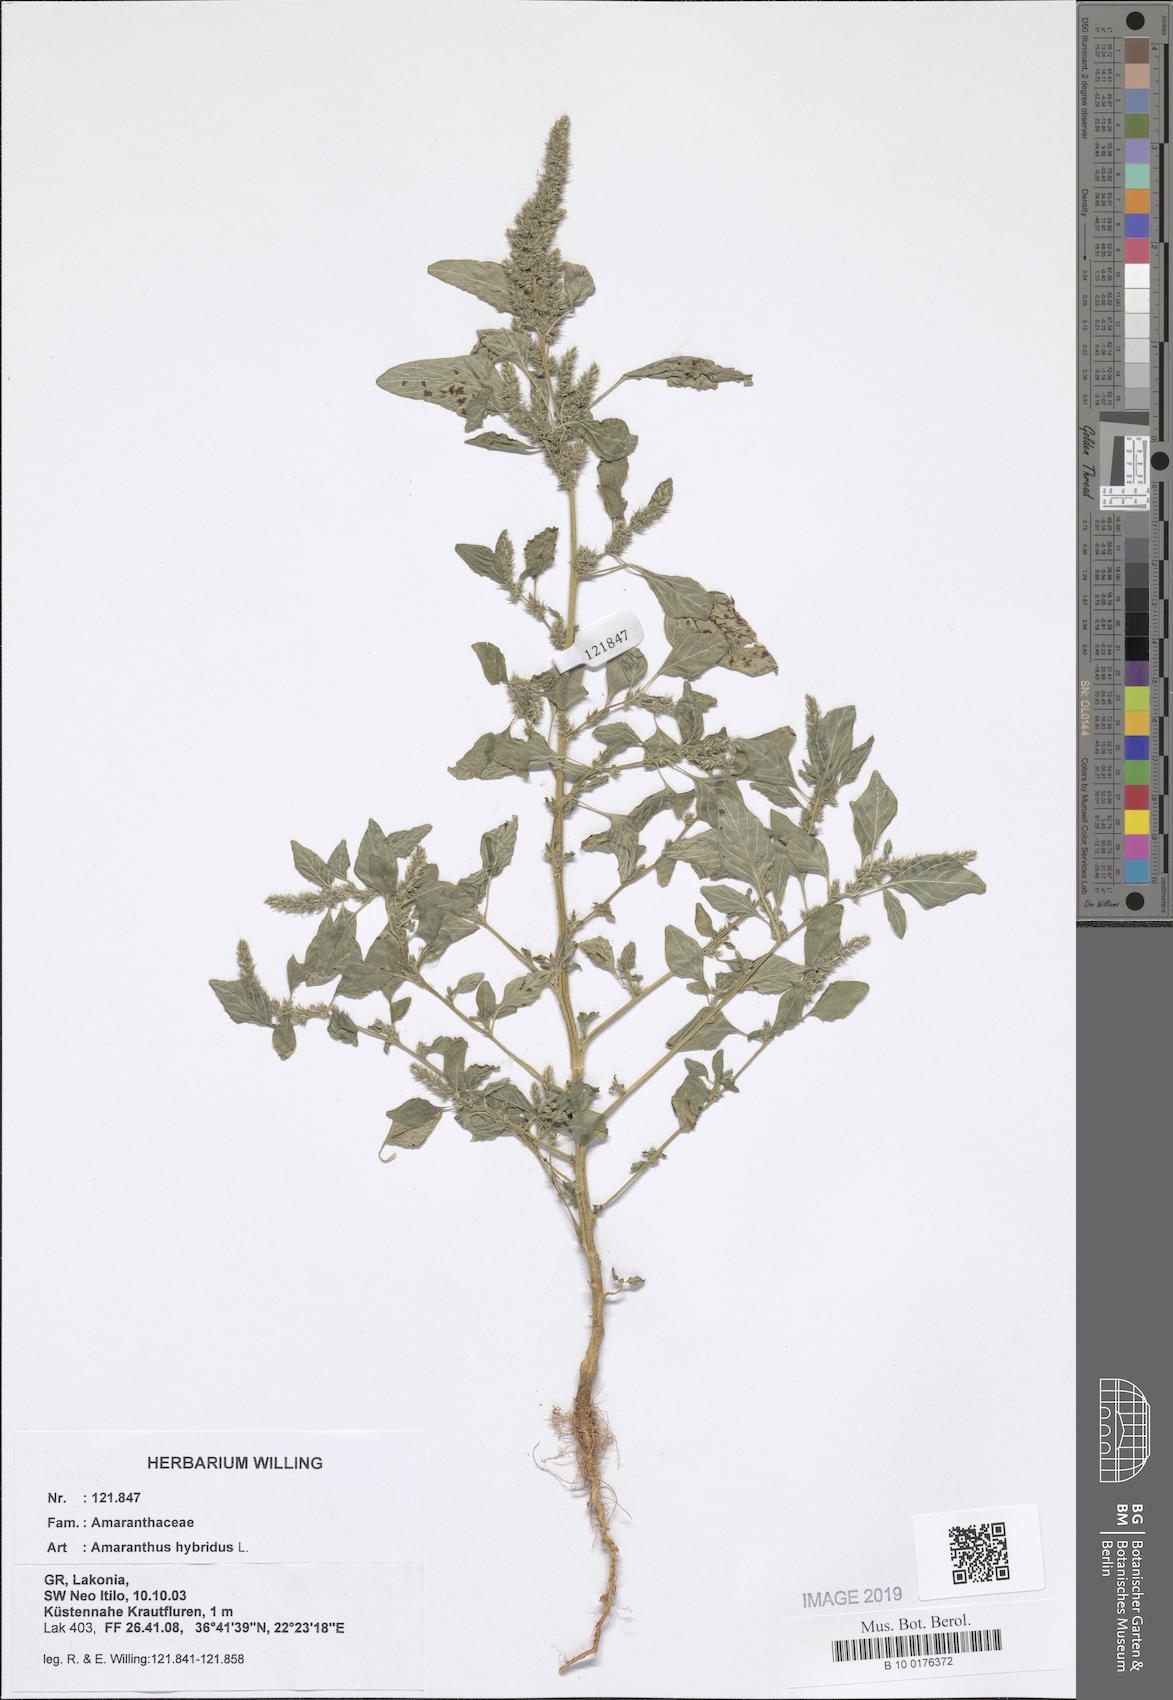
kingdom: Plantae
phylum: Tracheophyta
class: Magnoliopsida
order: Caryophyllales
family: Amaranthaceae
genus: Amaranthus
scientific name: Amaranthus hybridus
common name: Green amaranth
